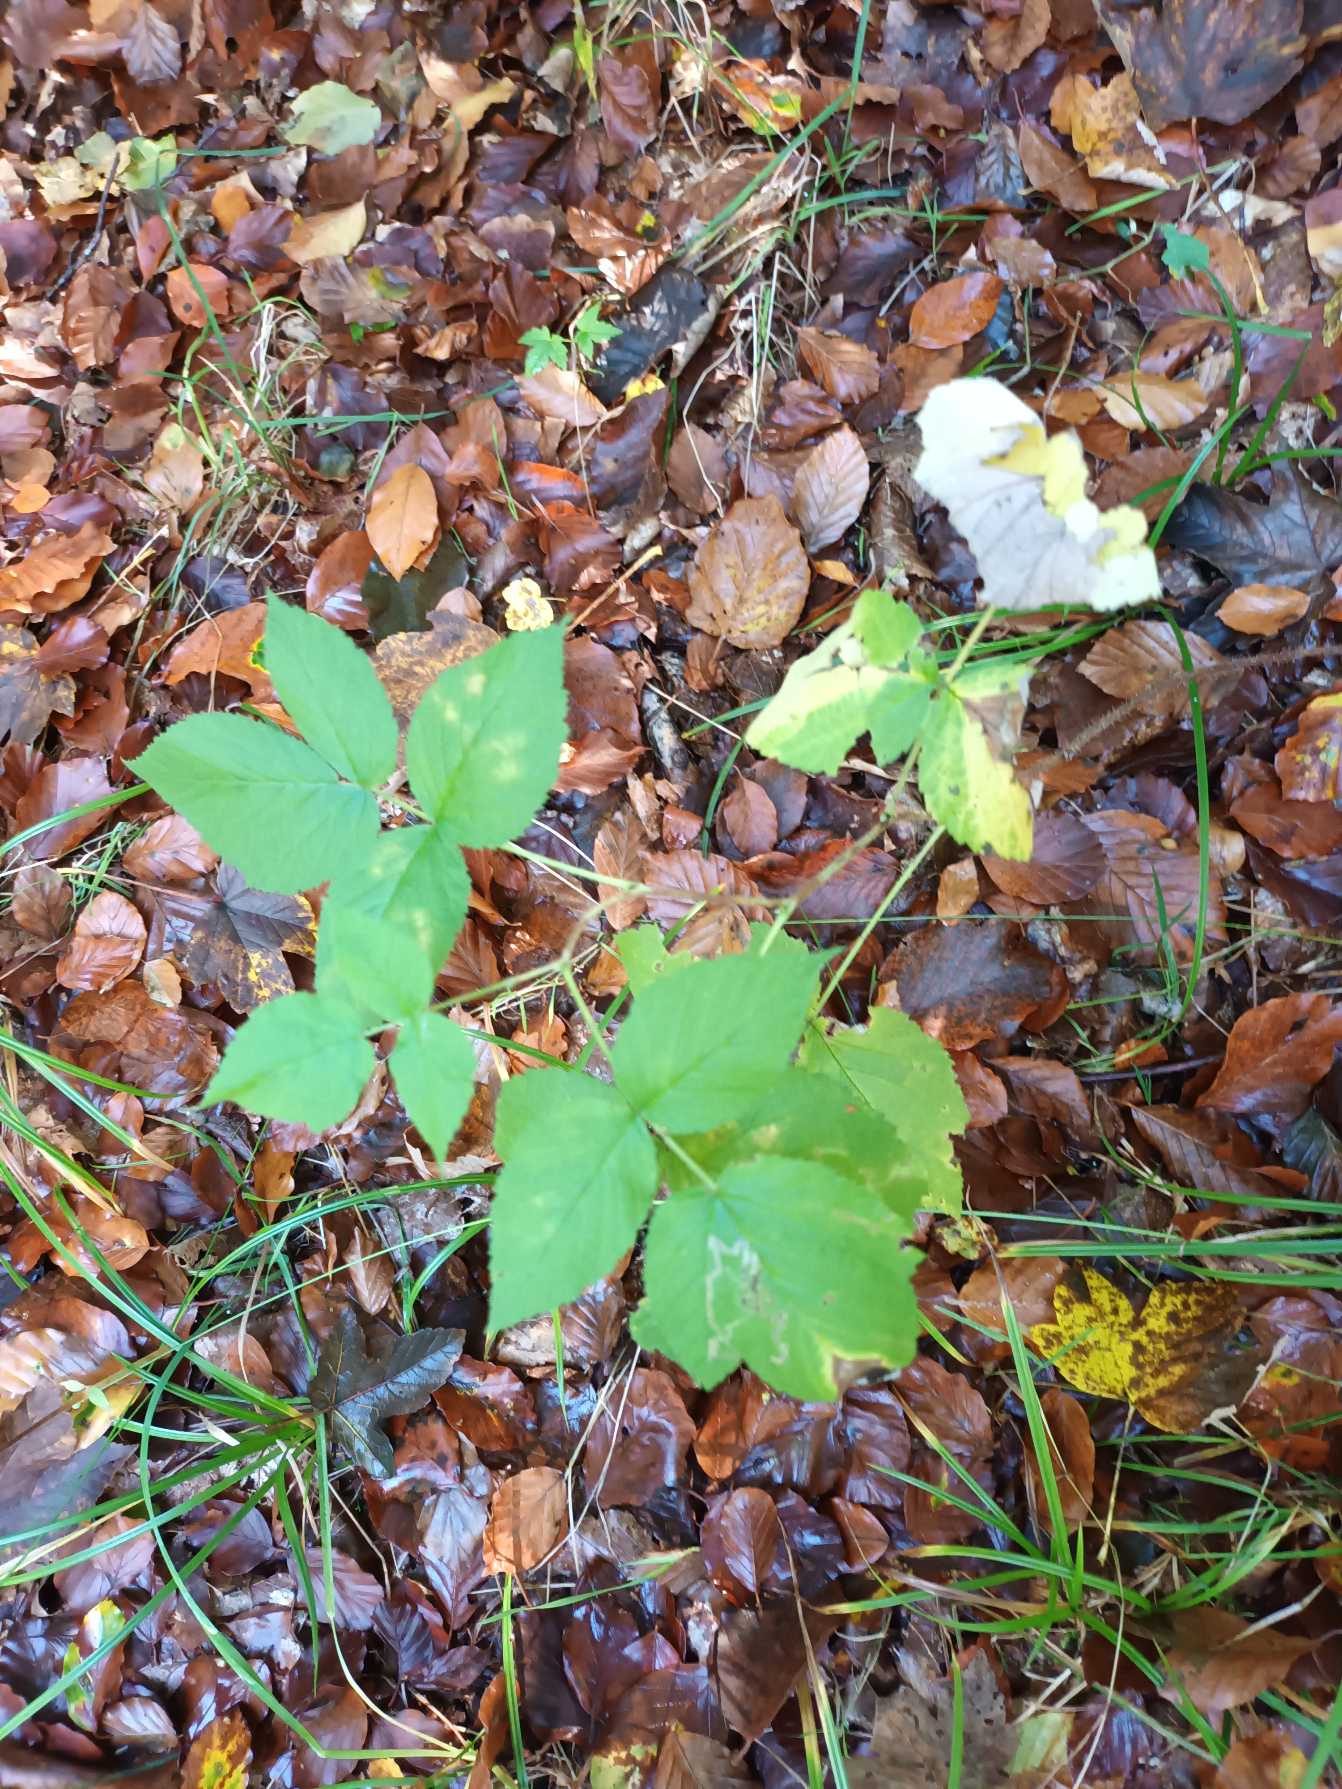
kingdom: Plantae
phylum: Tracheophyta
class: Magnoliopsida
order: Rosales
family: Rosaceae
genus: Rubus
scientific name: Rubus idaeus
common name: Hindbær
